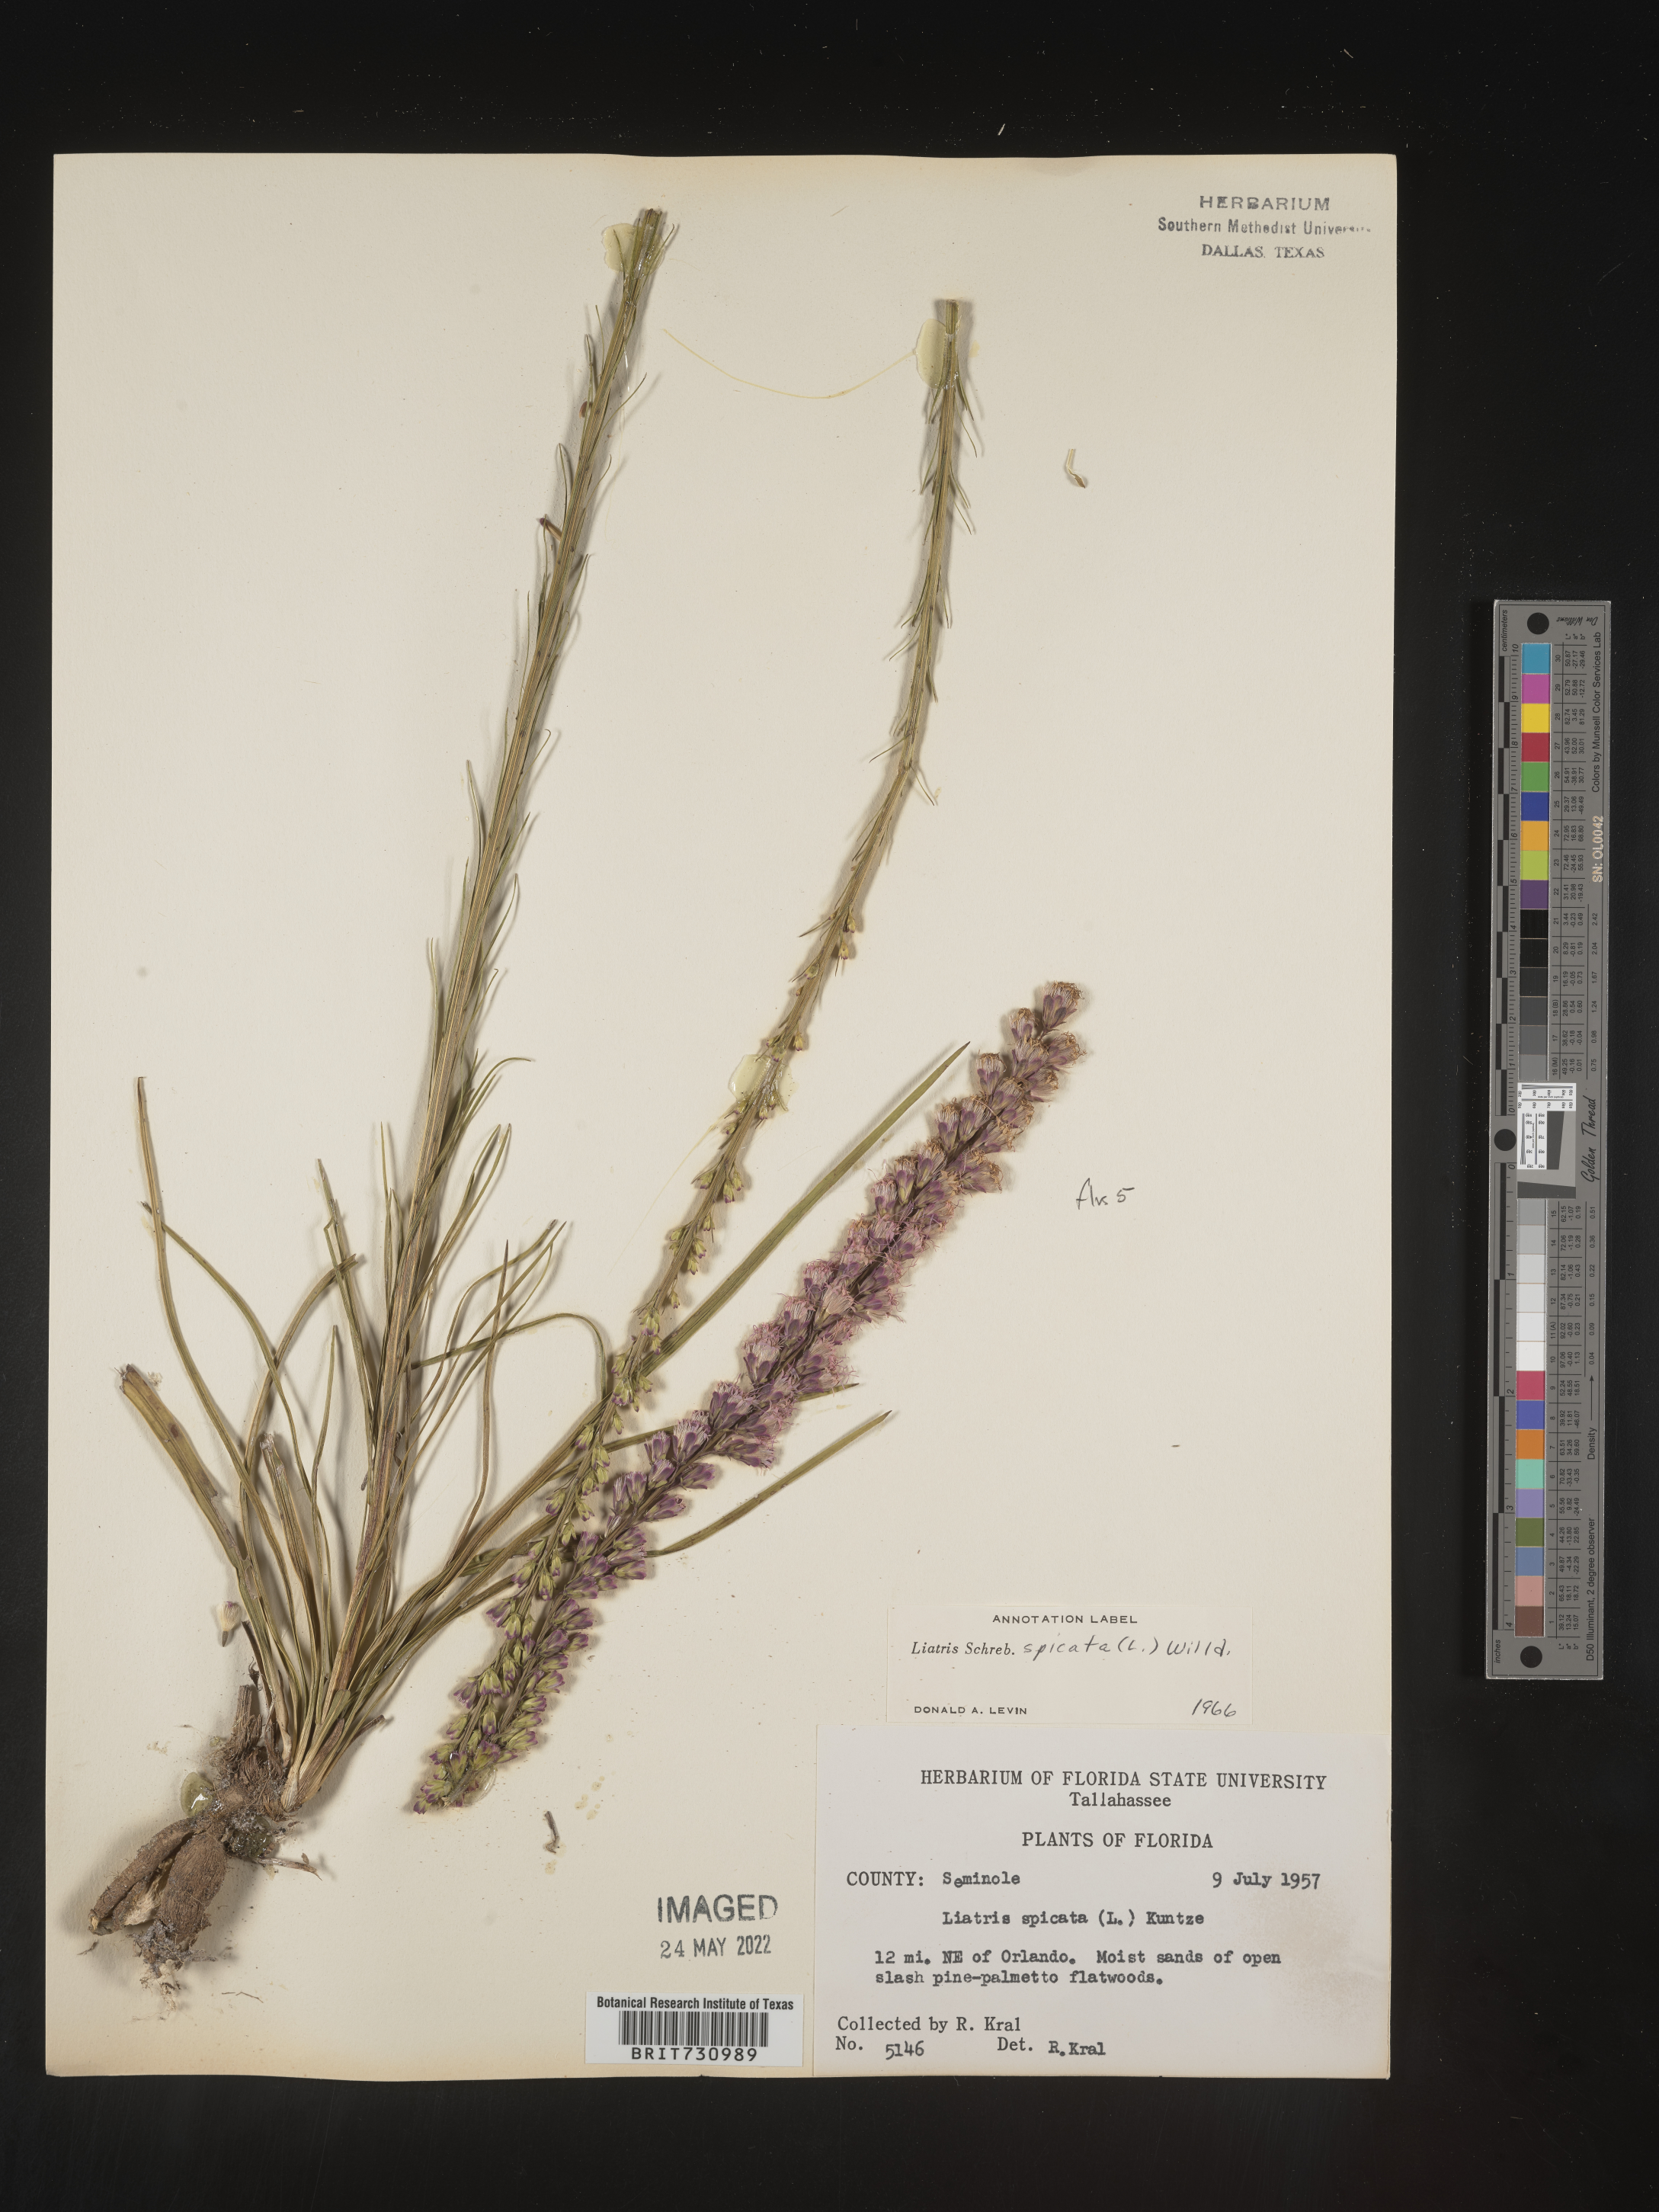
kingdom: Plantae
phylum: Tracheophyta
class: Magnoliopsida
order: Asterales
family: Asteraceae
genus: Liatris
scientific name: Liatris spicata
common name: Florist gayfeather
